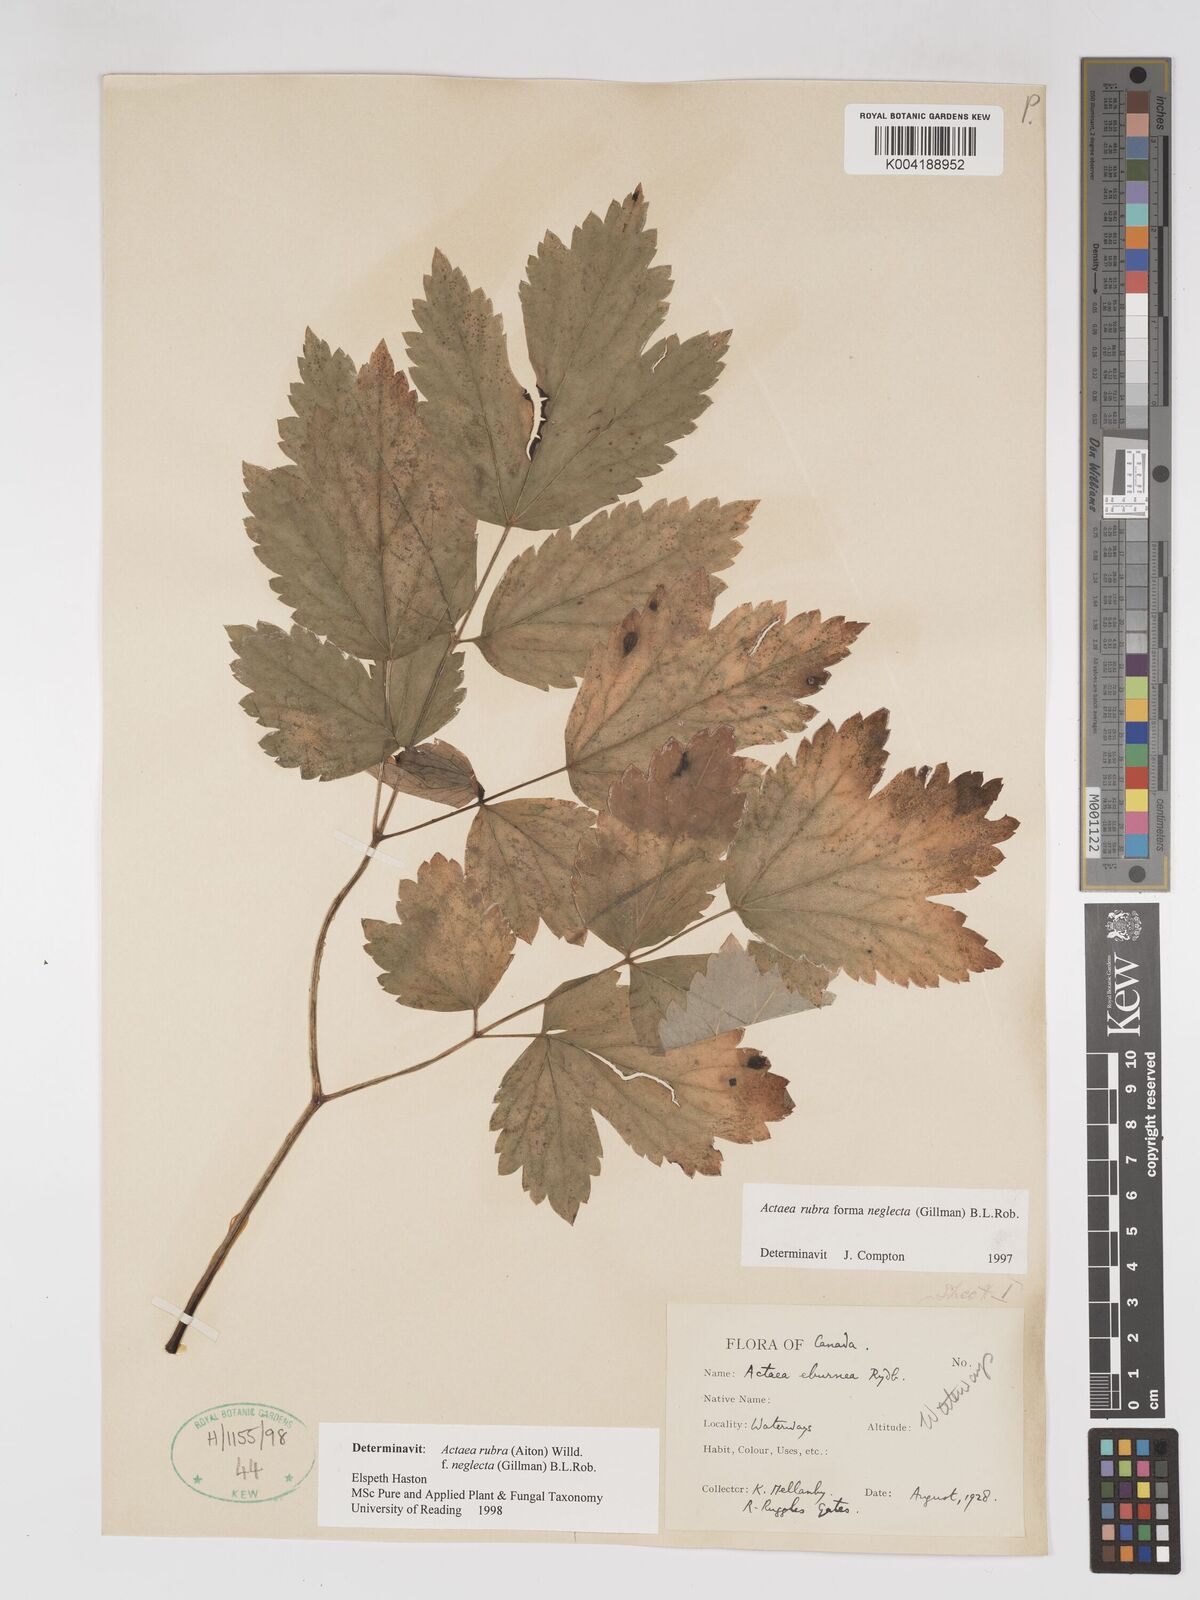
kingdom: Plantae
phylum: Tracheophyta
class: Magnoliopsida
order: Ranunculales
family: Ranunculaceae
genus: Actaea
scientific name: Actaea rubra
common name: Red baneberry
